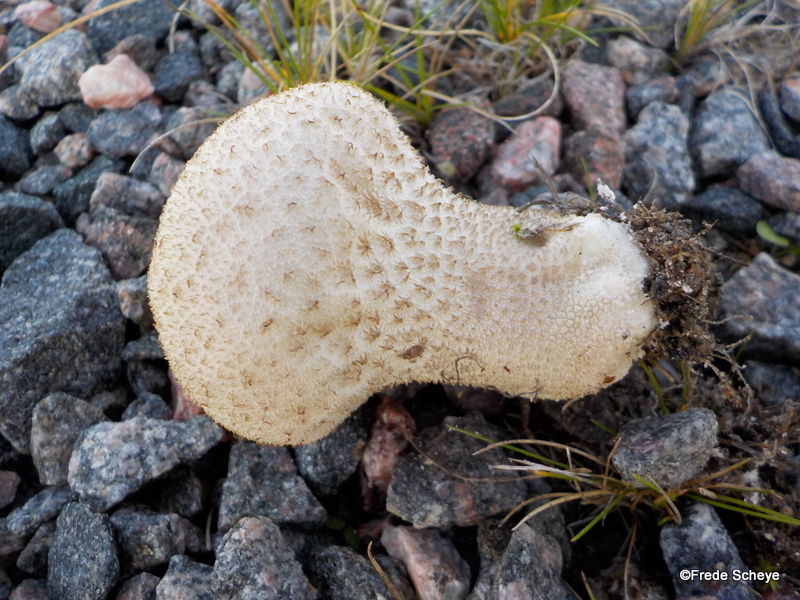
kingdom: Fungi
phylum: Basidiomycota
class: Agaricomycetes
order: Agaricales
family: Lycoperdaceae
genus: Lycoperdon
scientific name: Lycoperdon excipuliforme
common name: højstokket støvbold
